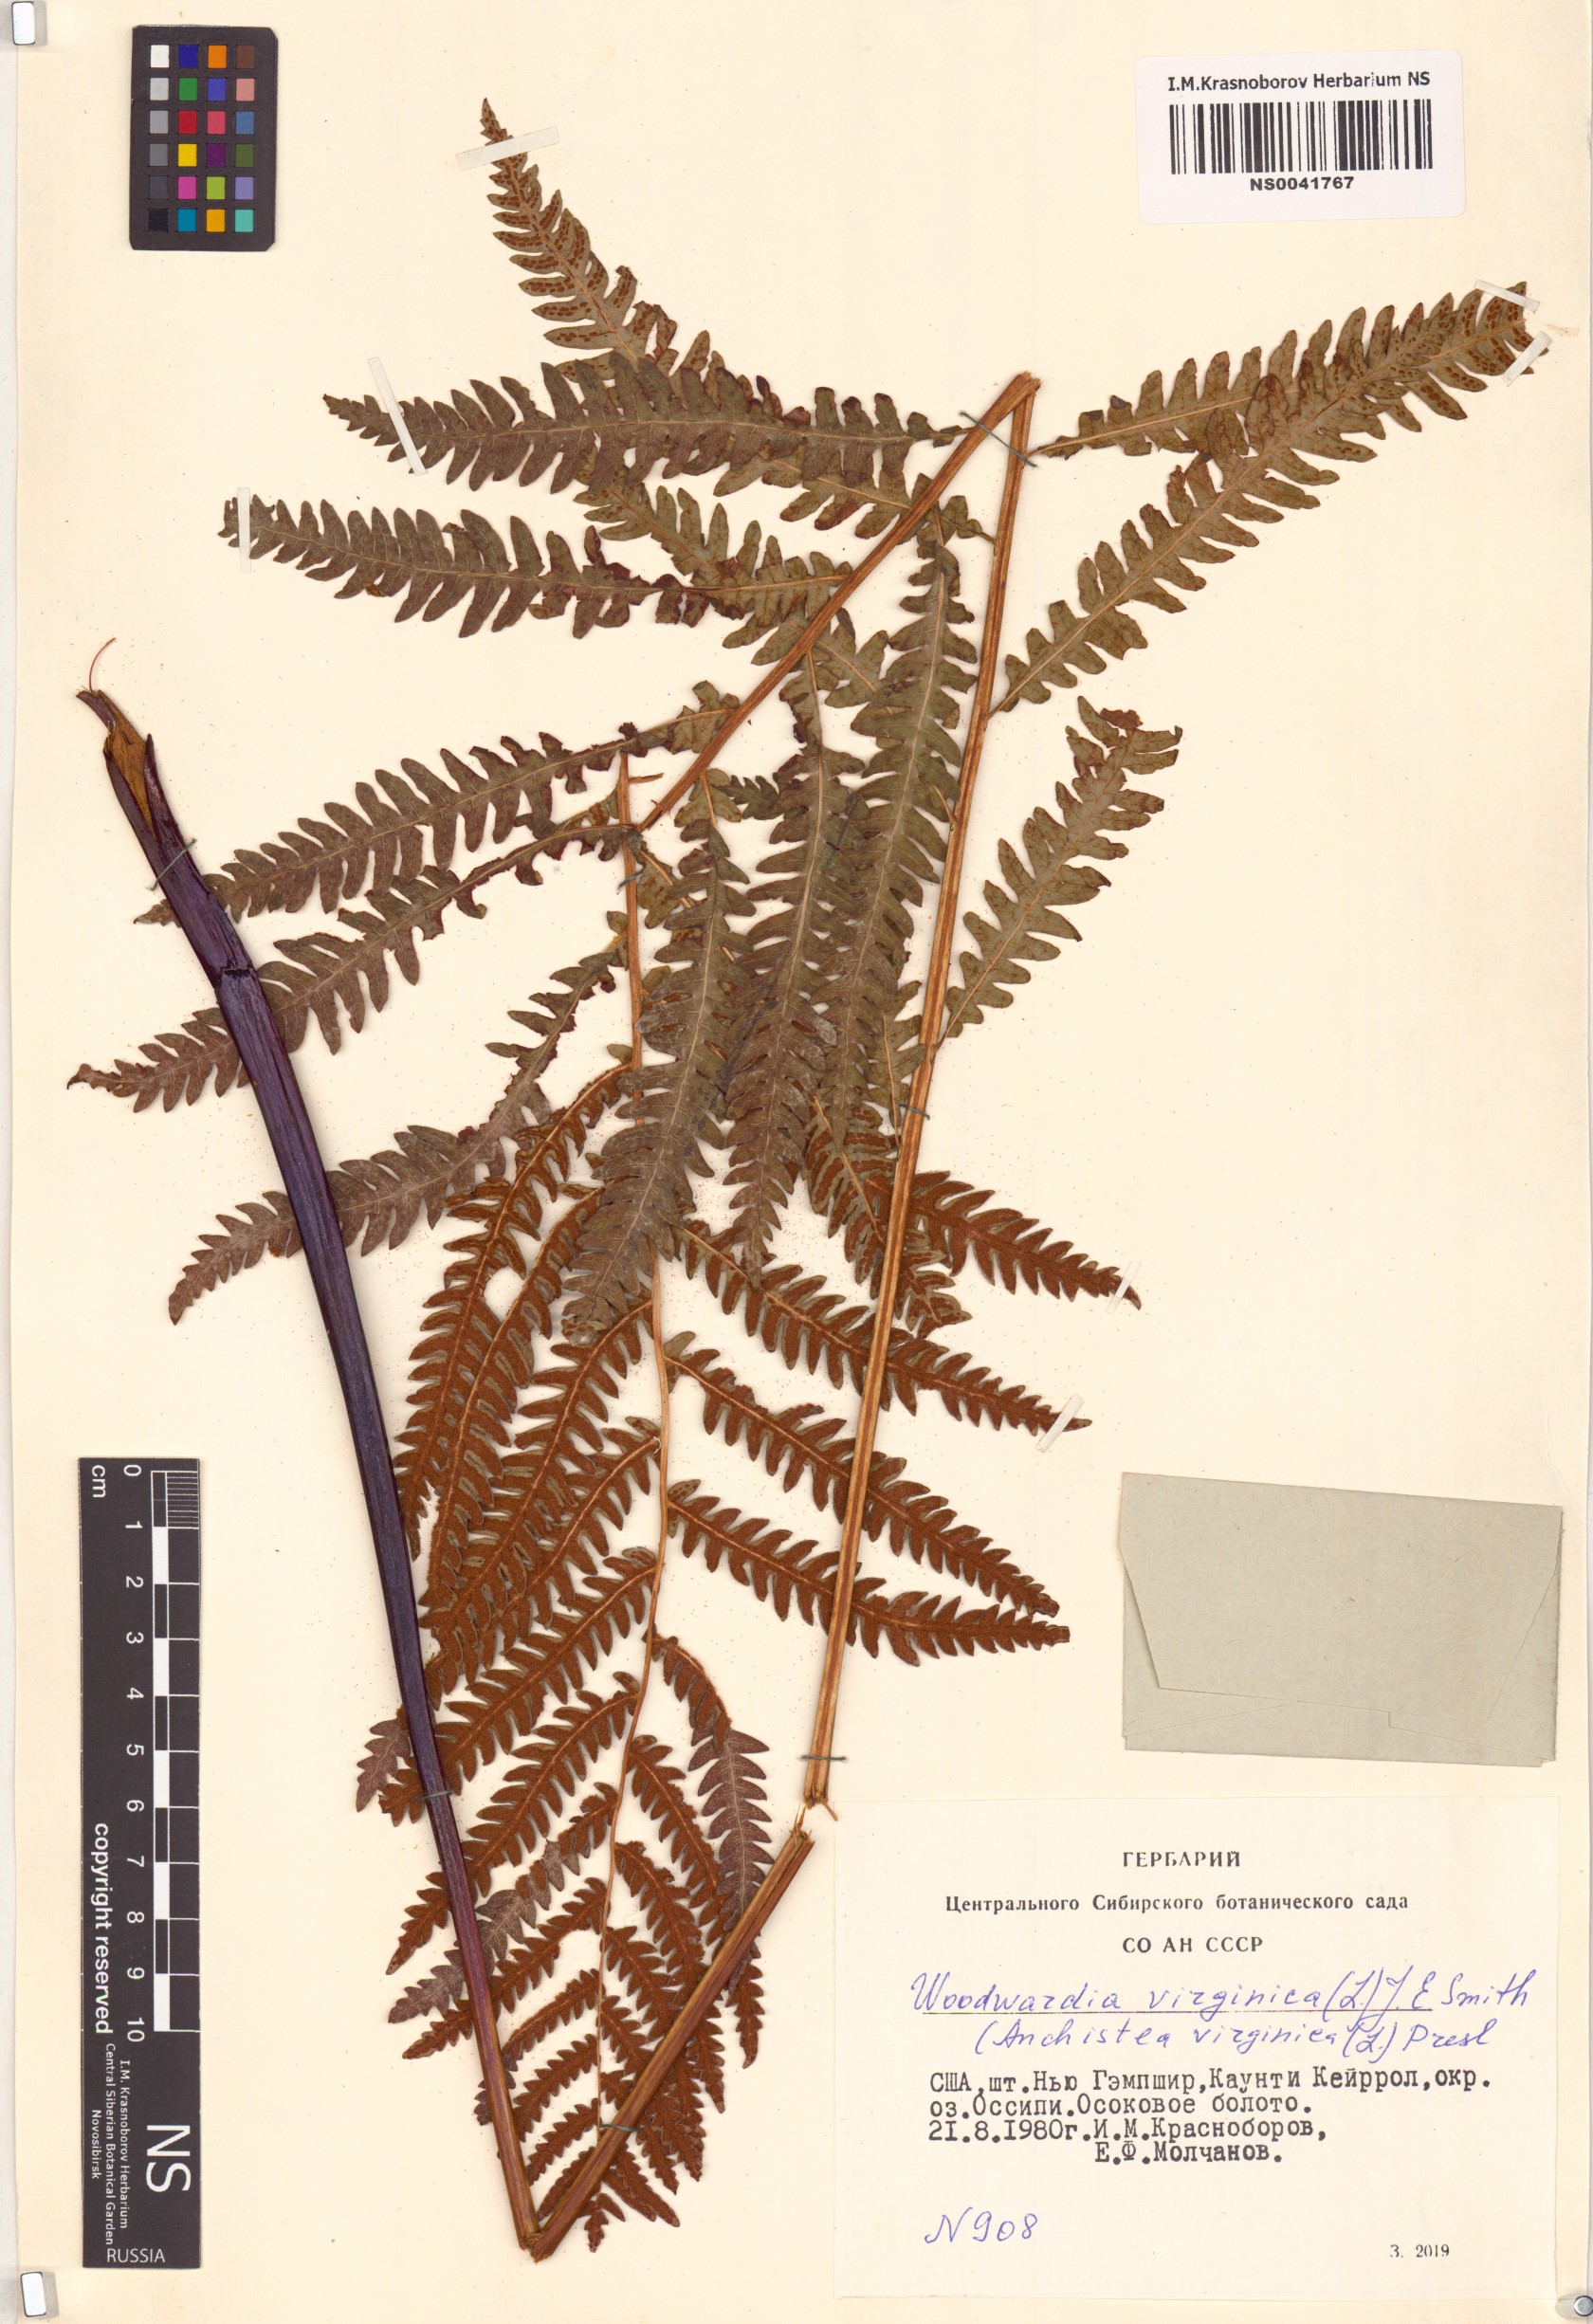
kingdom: Plantae
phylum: Tracheophyta
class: Polypodiopsida
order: Polypodiales
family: Blechnaceae
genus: Anchistea
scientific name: Anchistea virginica
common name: Virginia chain fern
